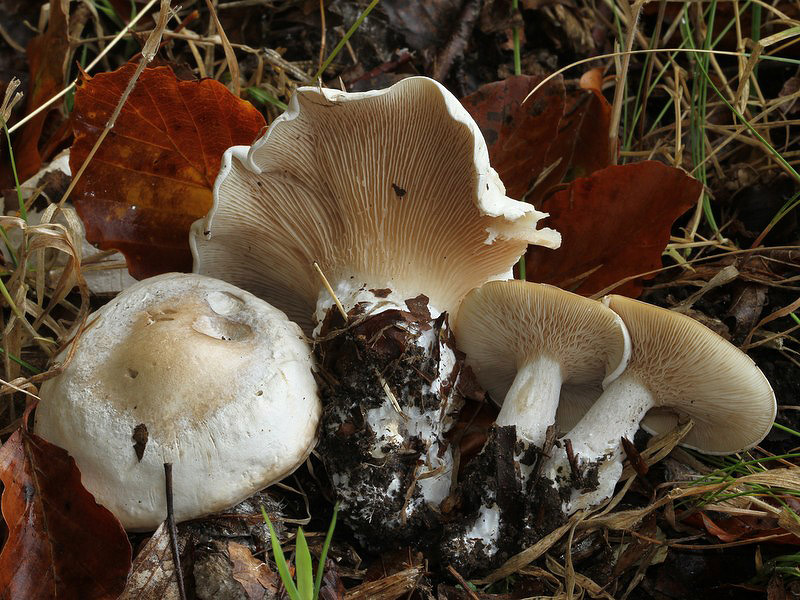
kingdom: Fungi
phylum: Basidiomycota
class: Agaricomycetes
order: Agaricales
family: Entolomataceae
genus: Clitopilus
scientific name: Clitopilus prunulus
